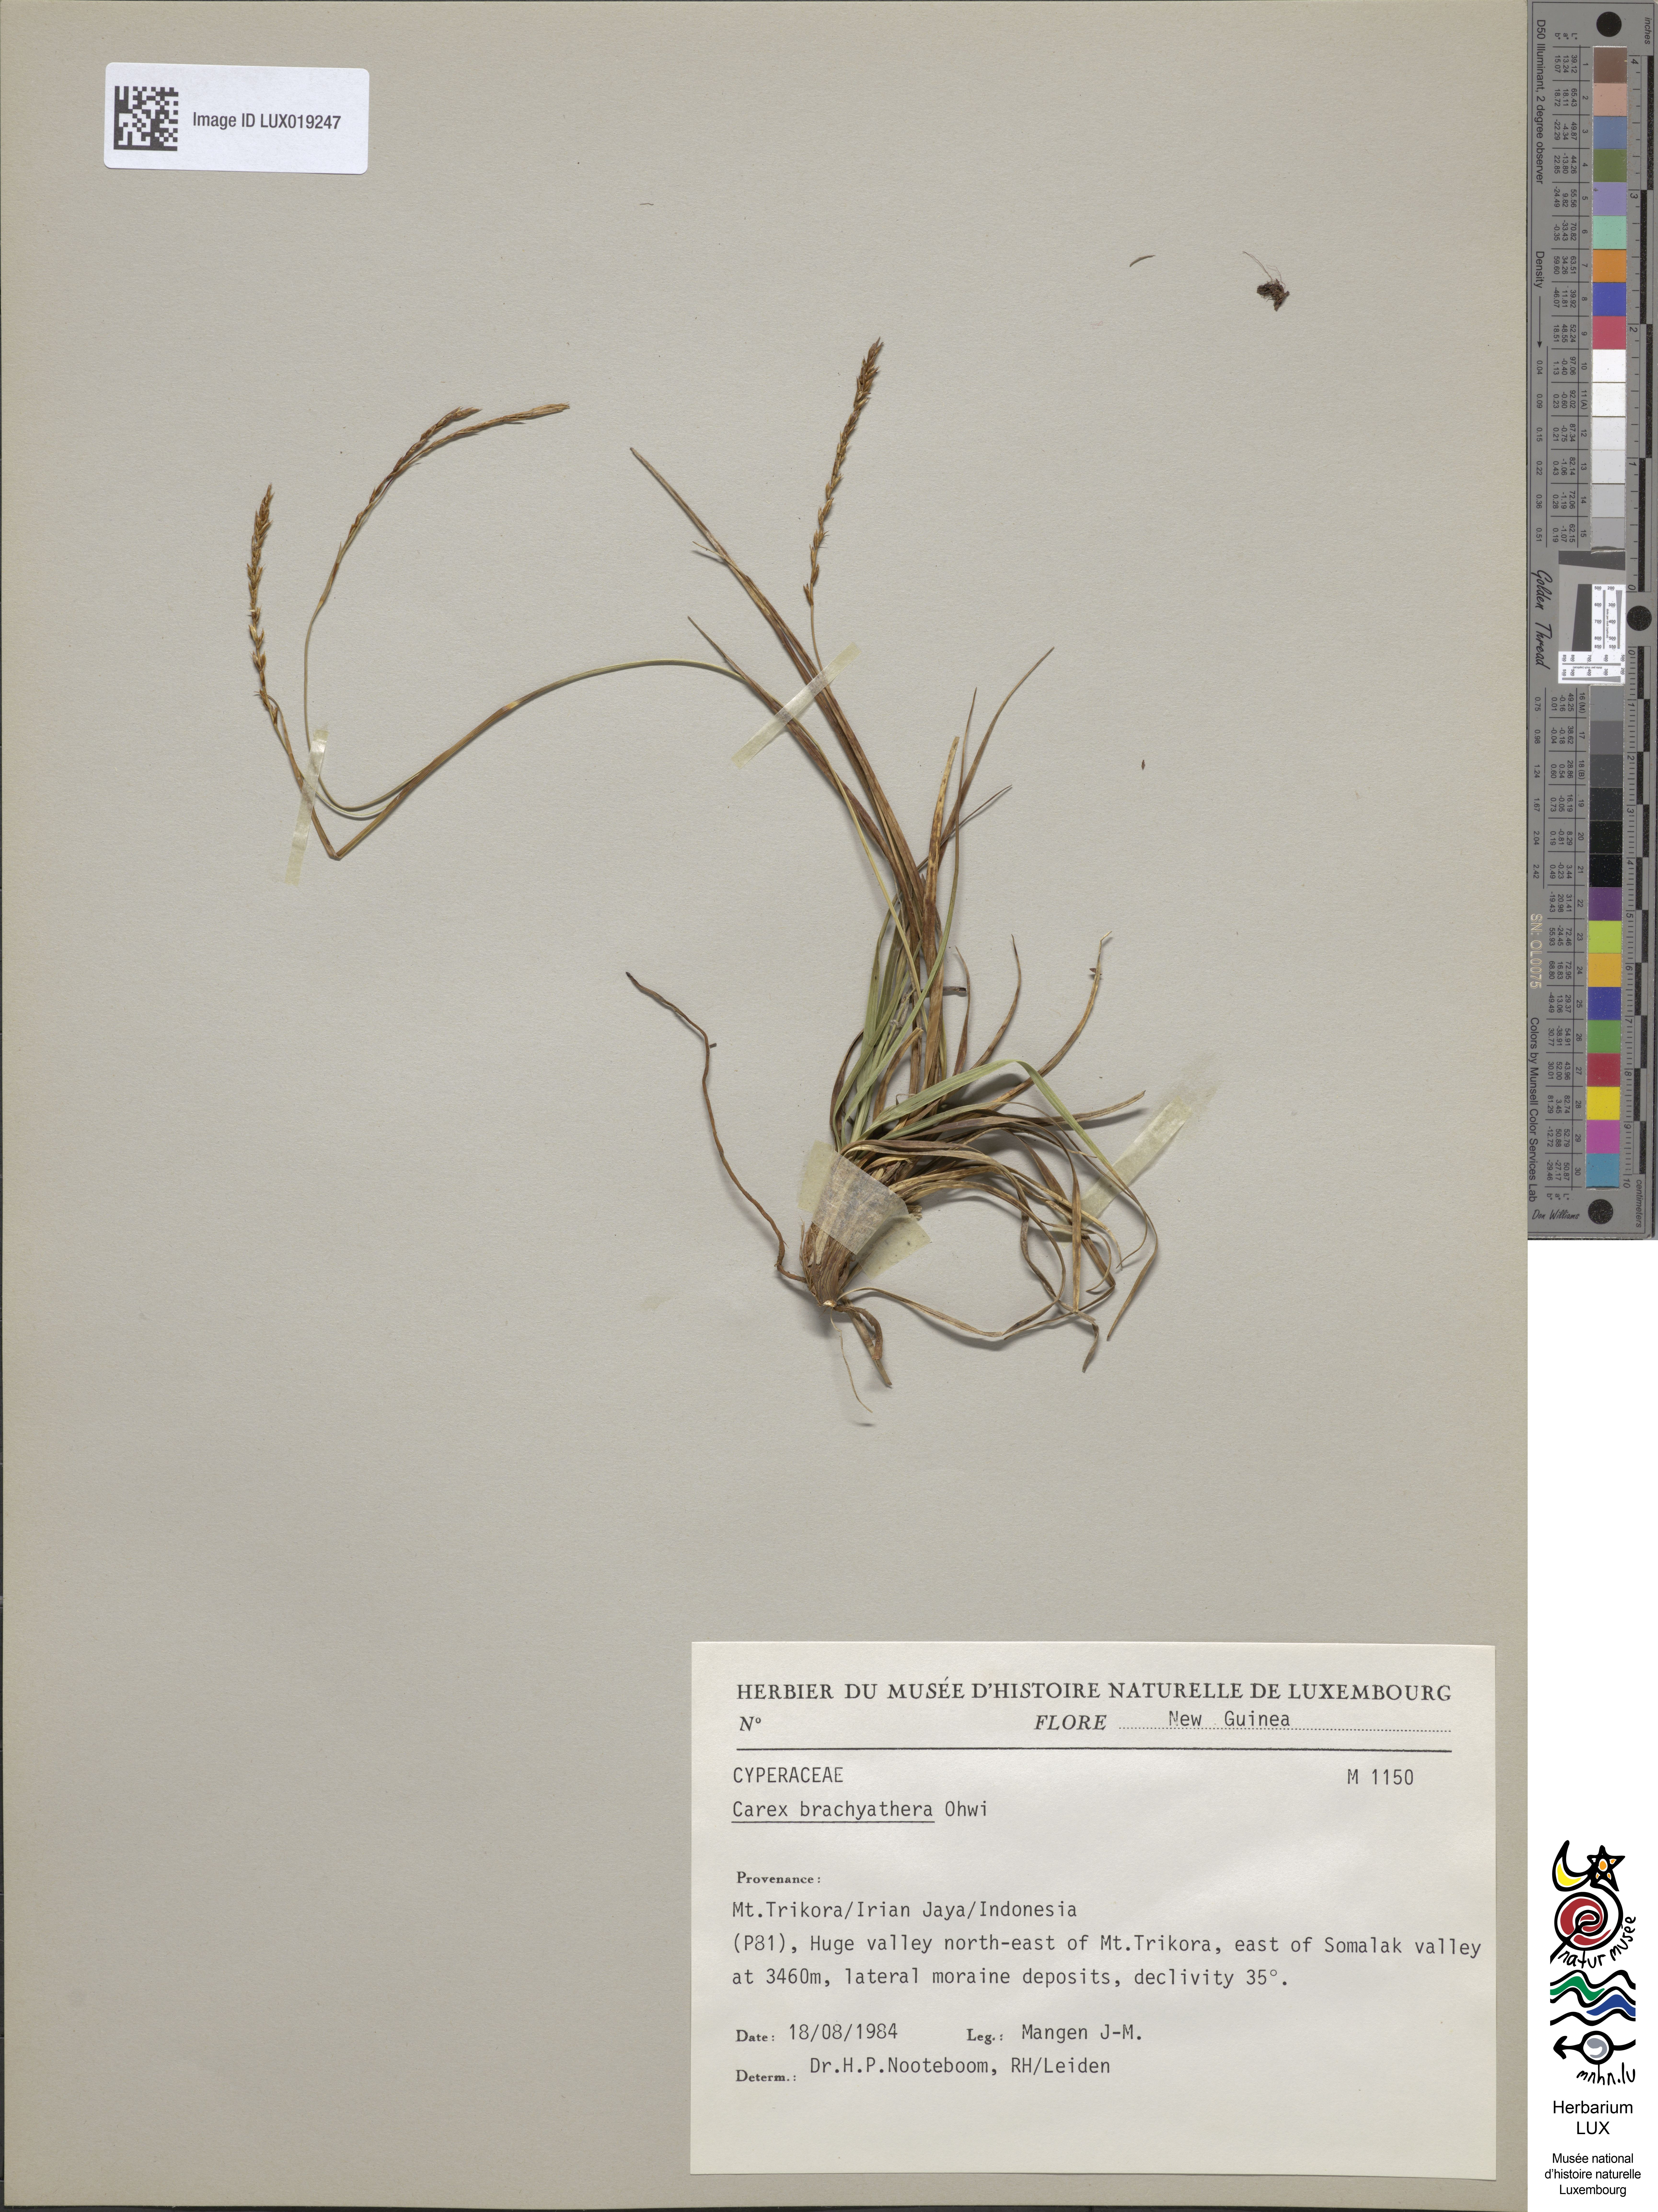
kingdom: Plantae
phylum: Tracheophyta
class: Liliopsida
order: Poales
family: Cyperaceae
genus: Carex
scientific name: Carex brachyanthera
